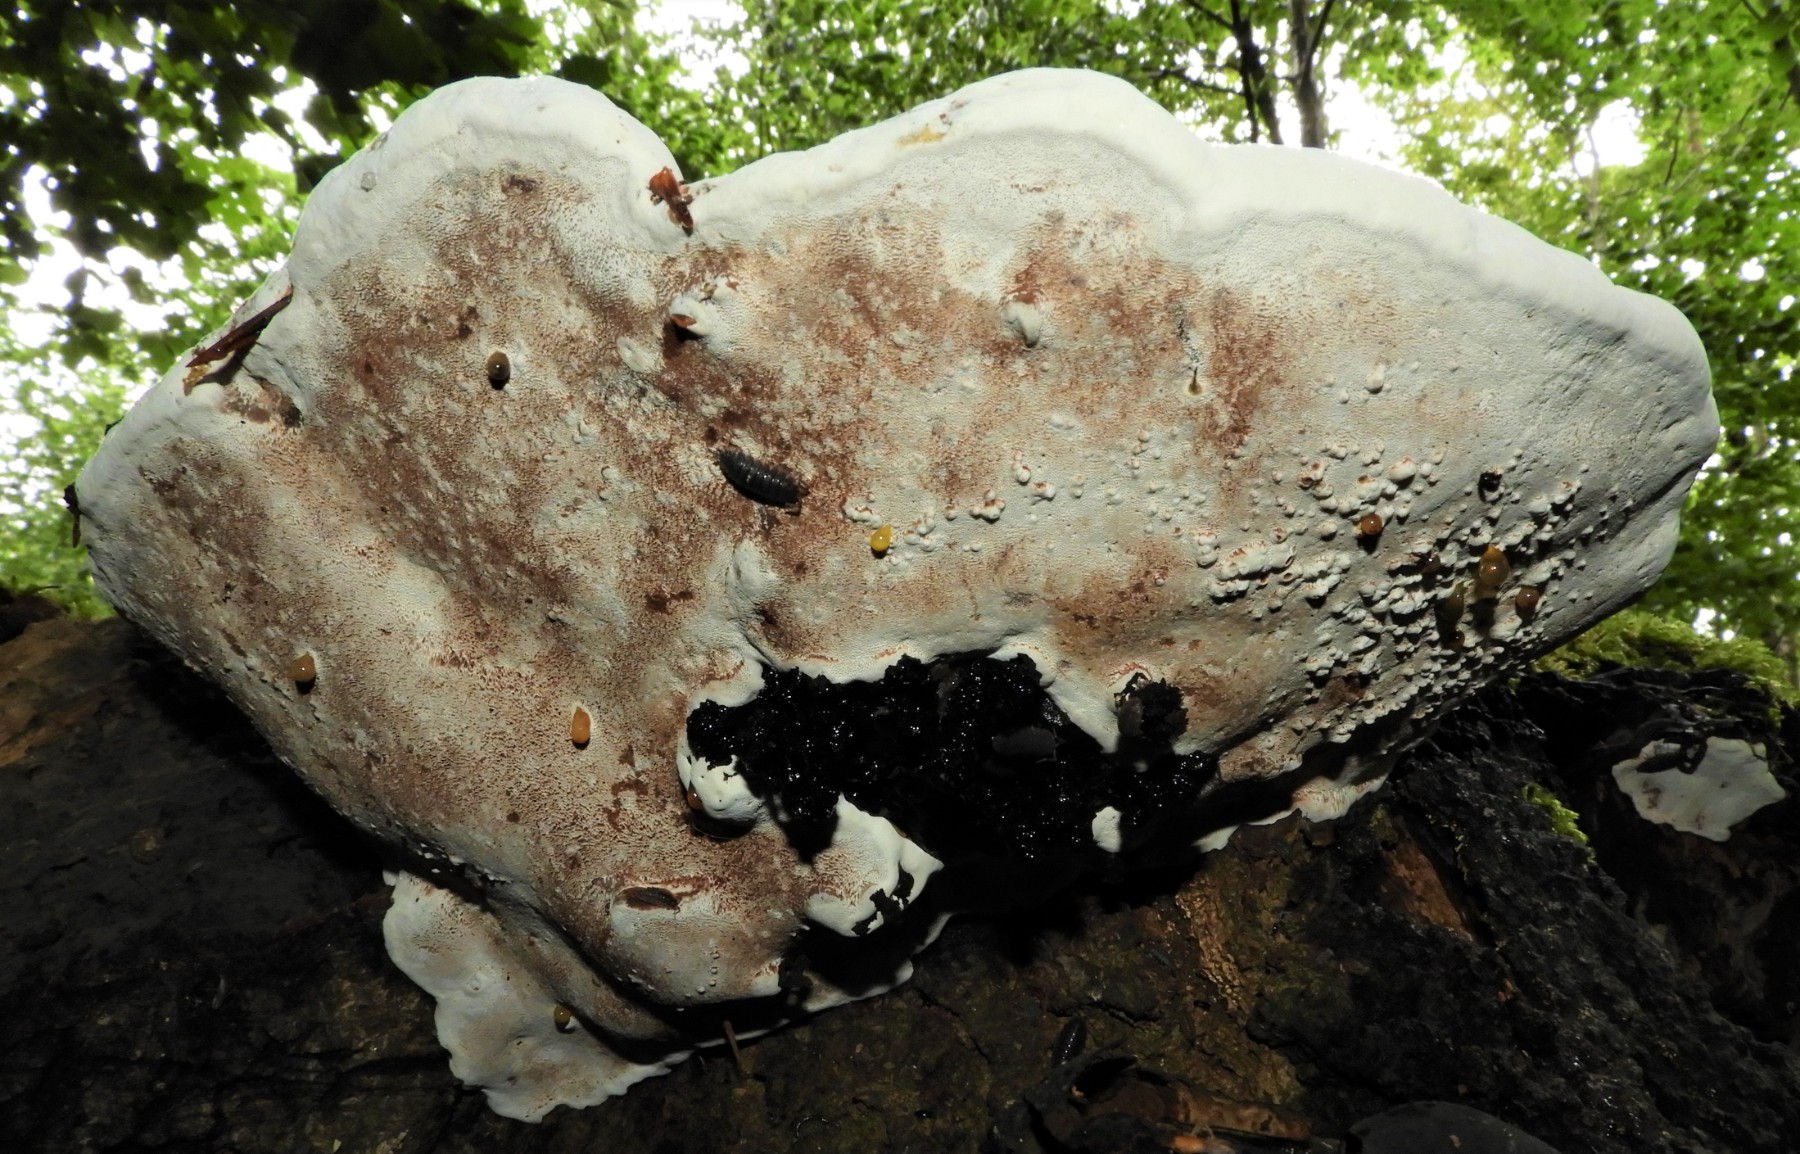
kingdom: Fungi
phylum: Basidiomycota
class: Agaricomycetes
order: Polyporales
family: Polyporaceae
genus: Ganoderma
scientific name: Ganoderma applanatum
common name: flad lakporesvamp
